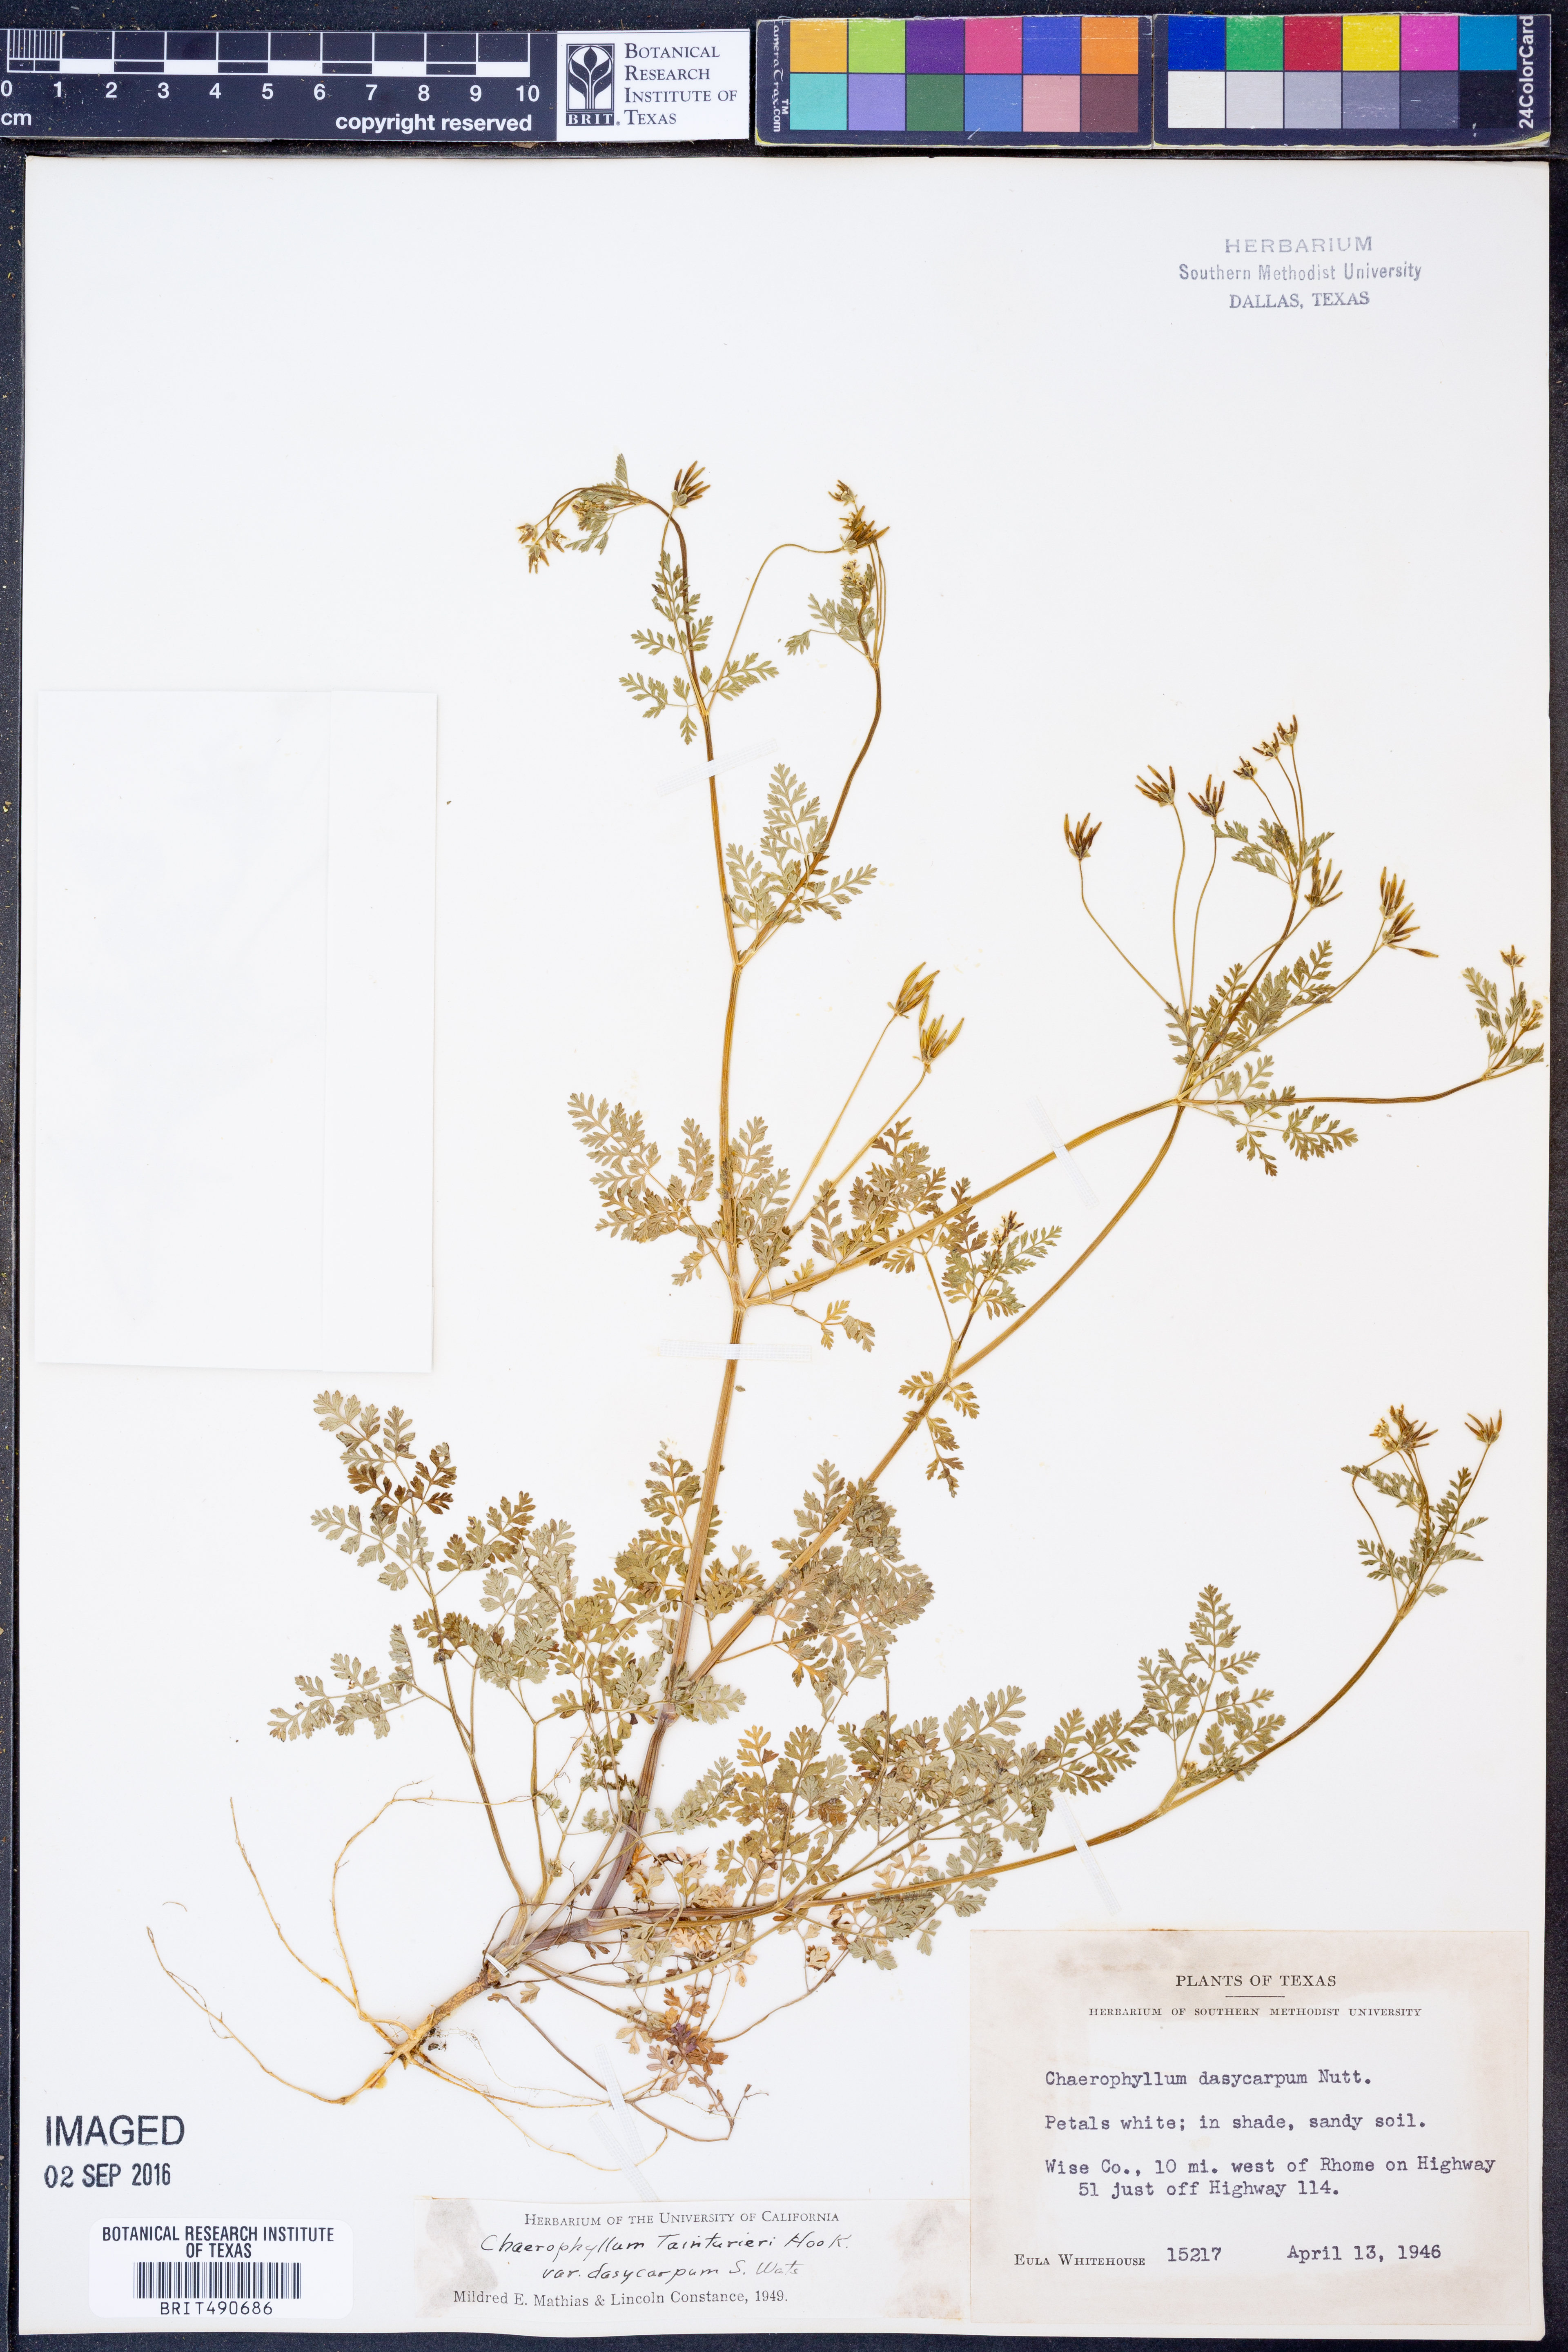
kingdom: Plantae
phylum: Tracheophyta
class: Magnoliopsida
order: Apiales
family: Apiaceae
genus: Chaerophyllum
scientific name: Chaerophyllum dasycarpum
